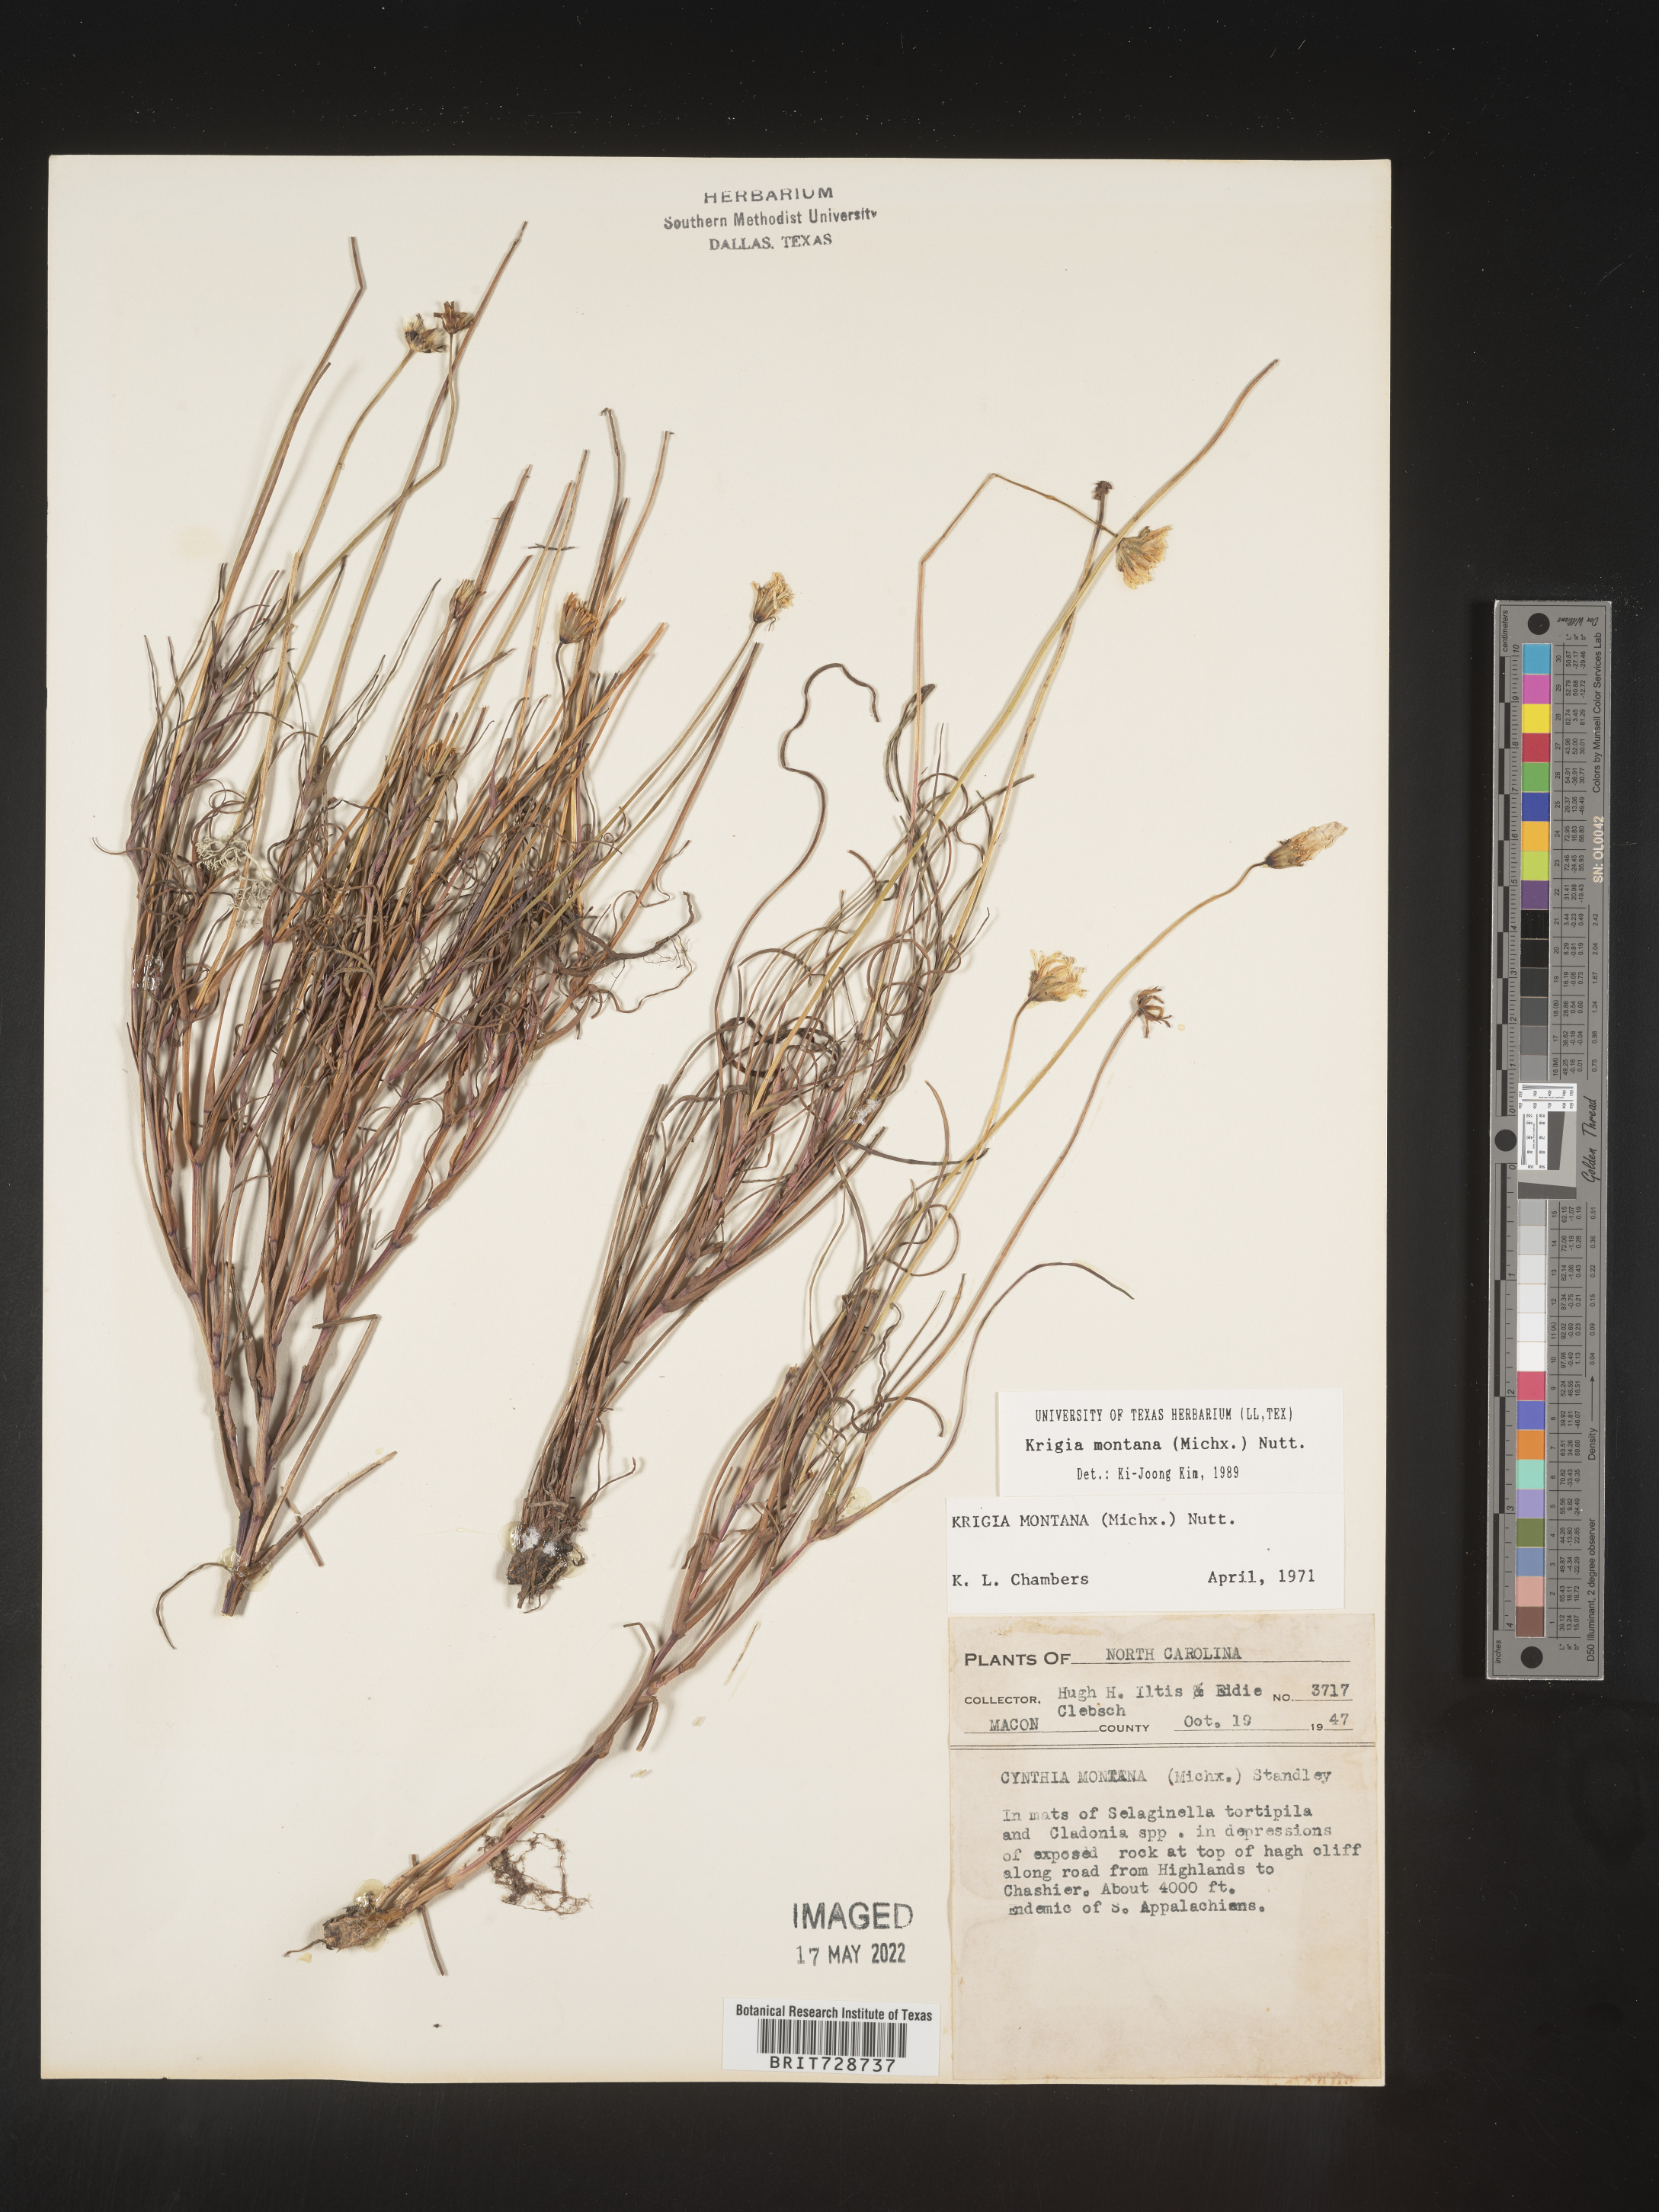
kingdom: Plantae
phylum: Tracheophyta
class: Magnoliopsida
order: Asterales
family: Asteraceae
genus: Krigia
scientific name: Krigia montana
